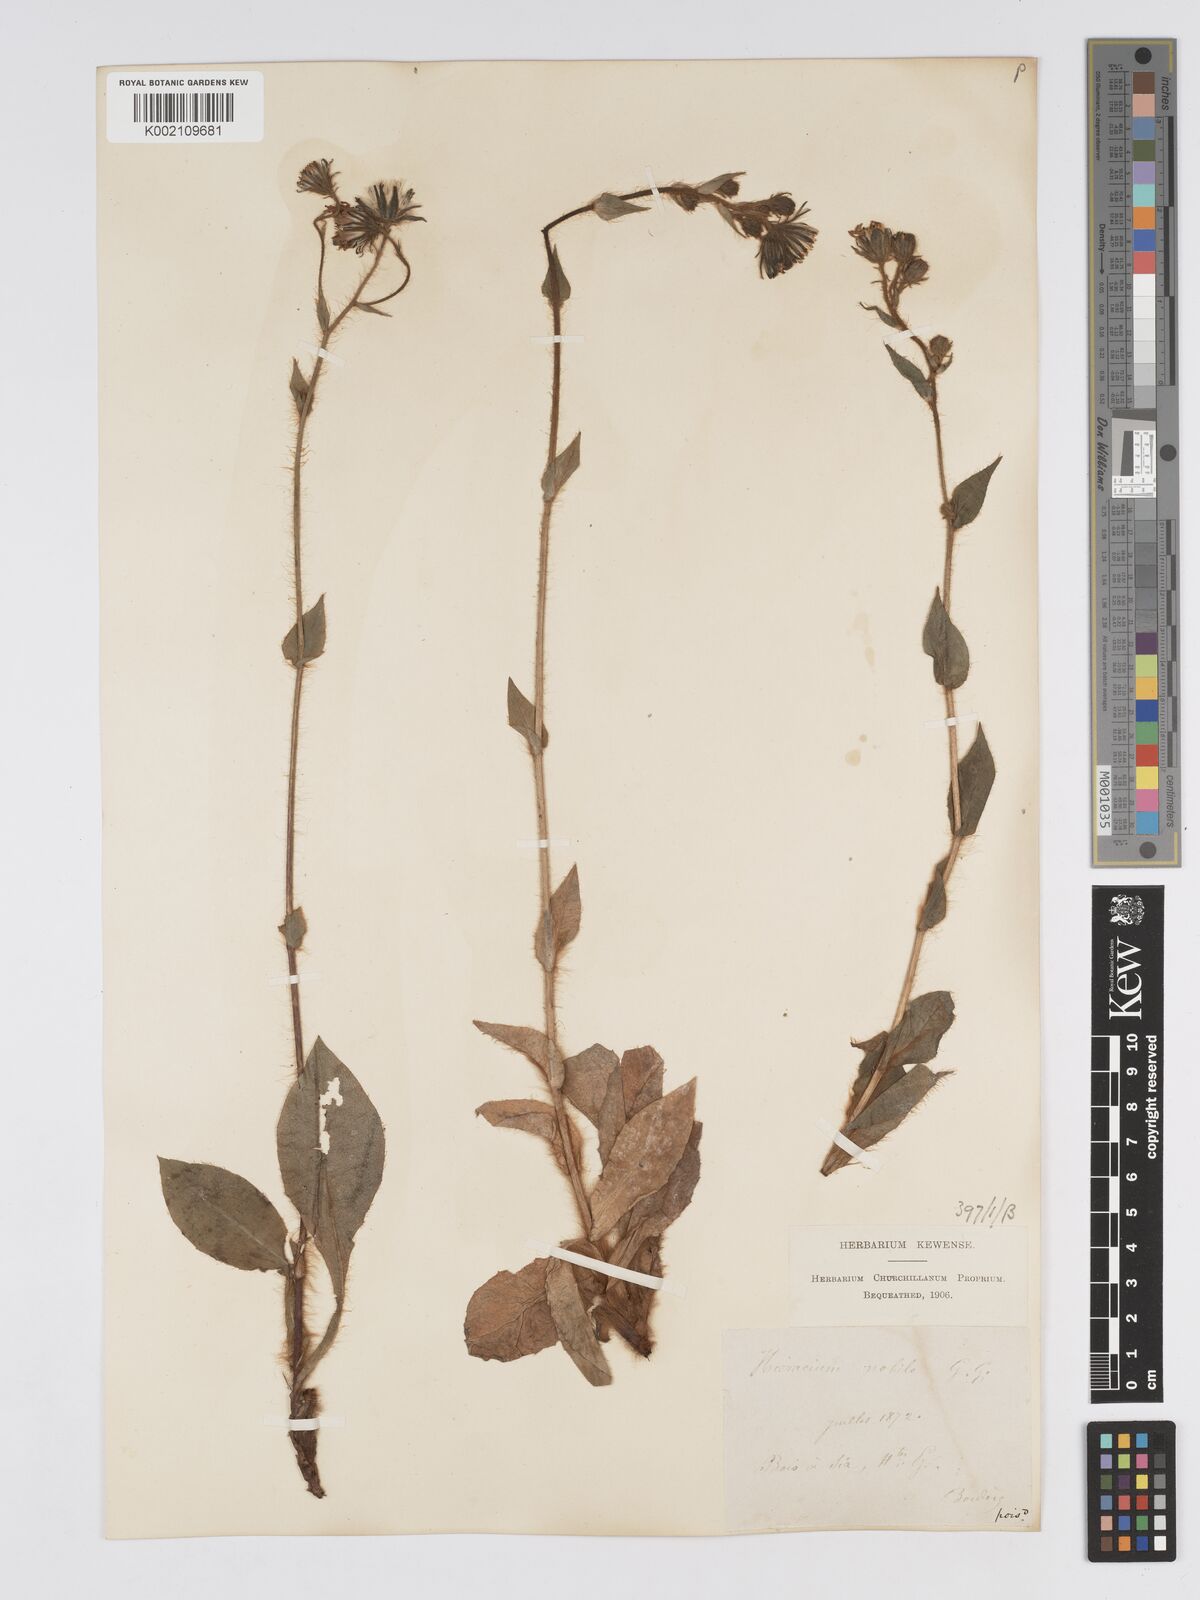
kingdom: Plantae
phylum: Tracheophyta
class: Magnoliopsida
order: Asterales
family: Asteraceae
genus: Hieracium
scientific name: Hieracium nobile
